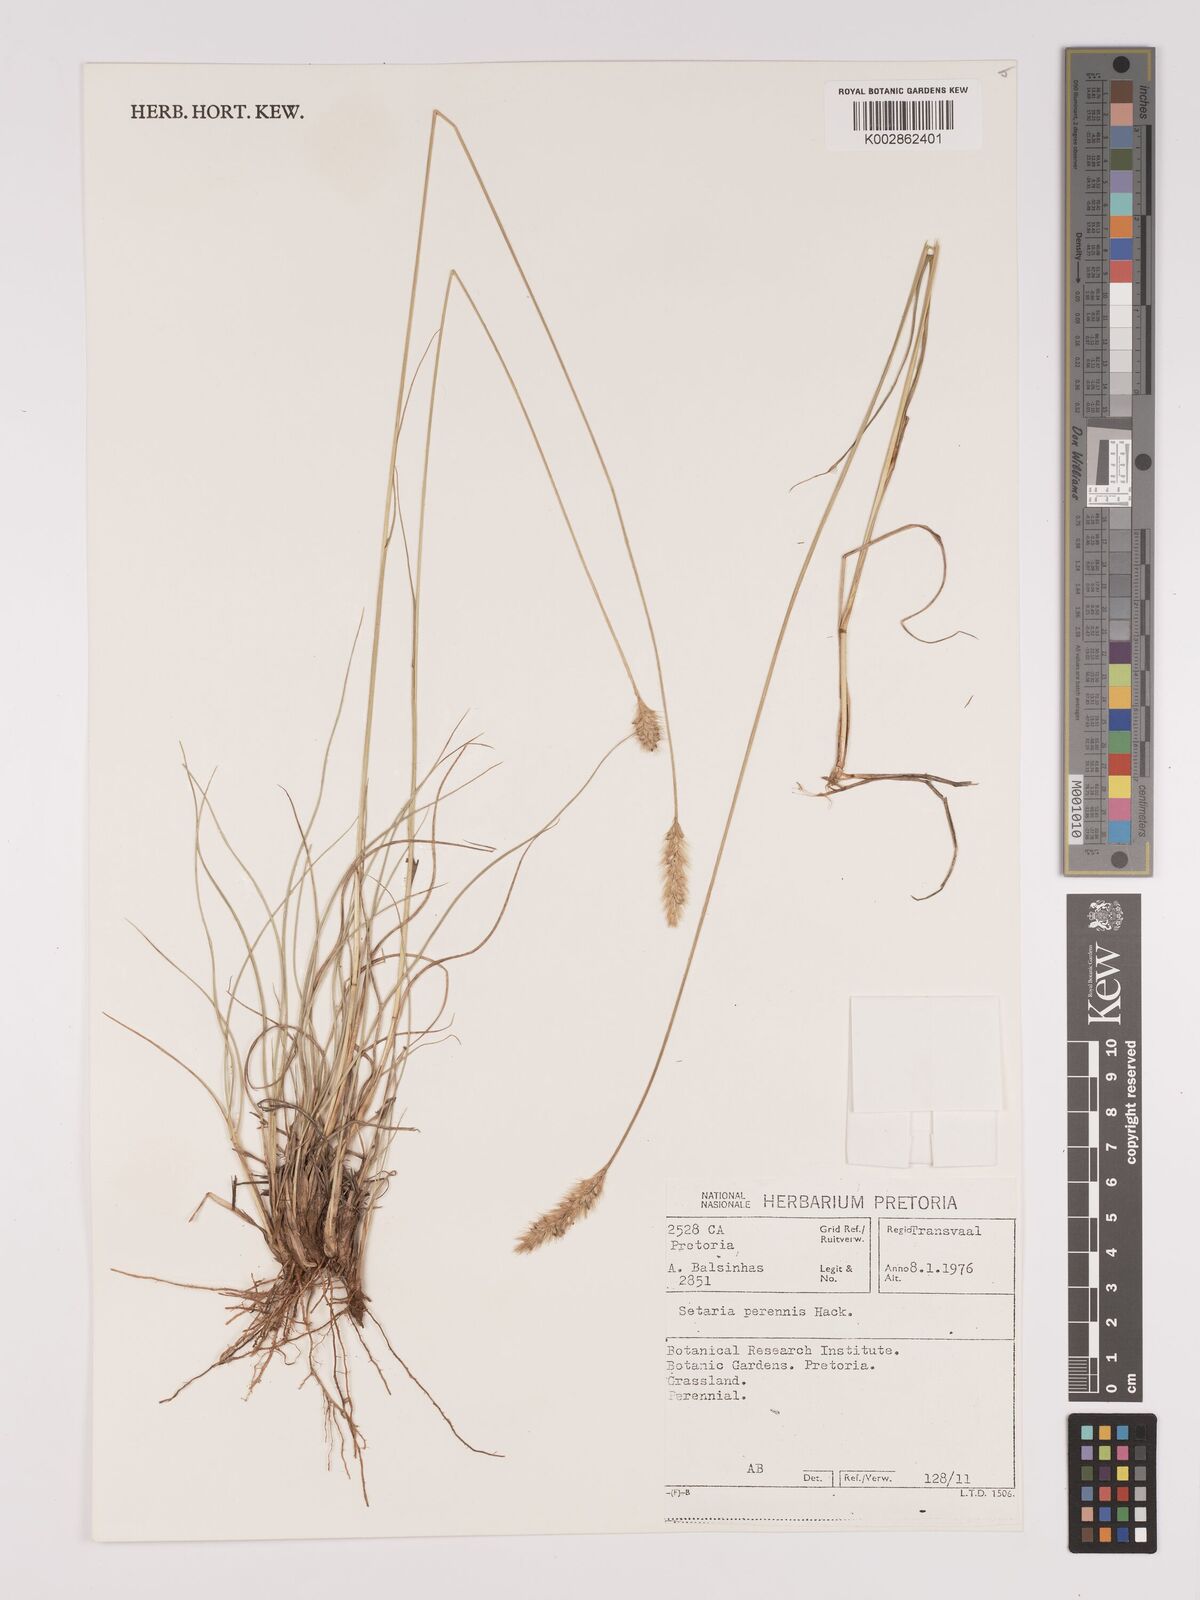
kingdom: Plantae
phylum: Tracheophyta
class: Liliopsida
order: Poales
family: Poaceae
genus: Setaria
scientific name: Setaria sphacelata
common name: African bristlegrass
